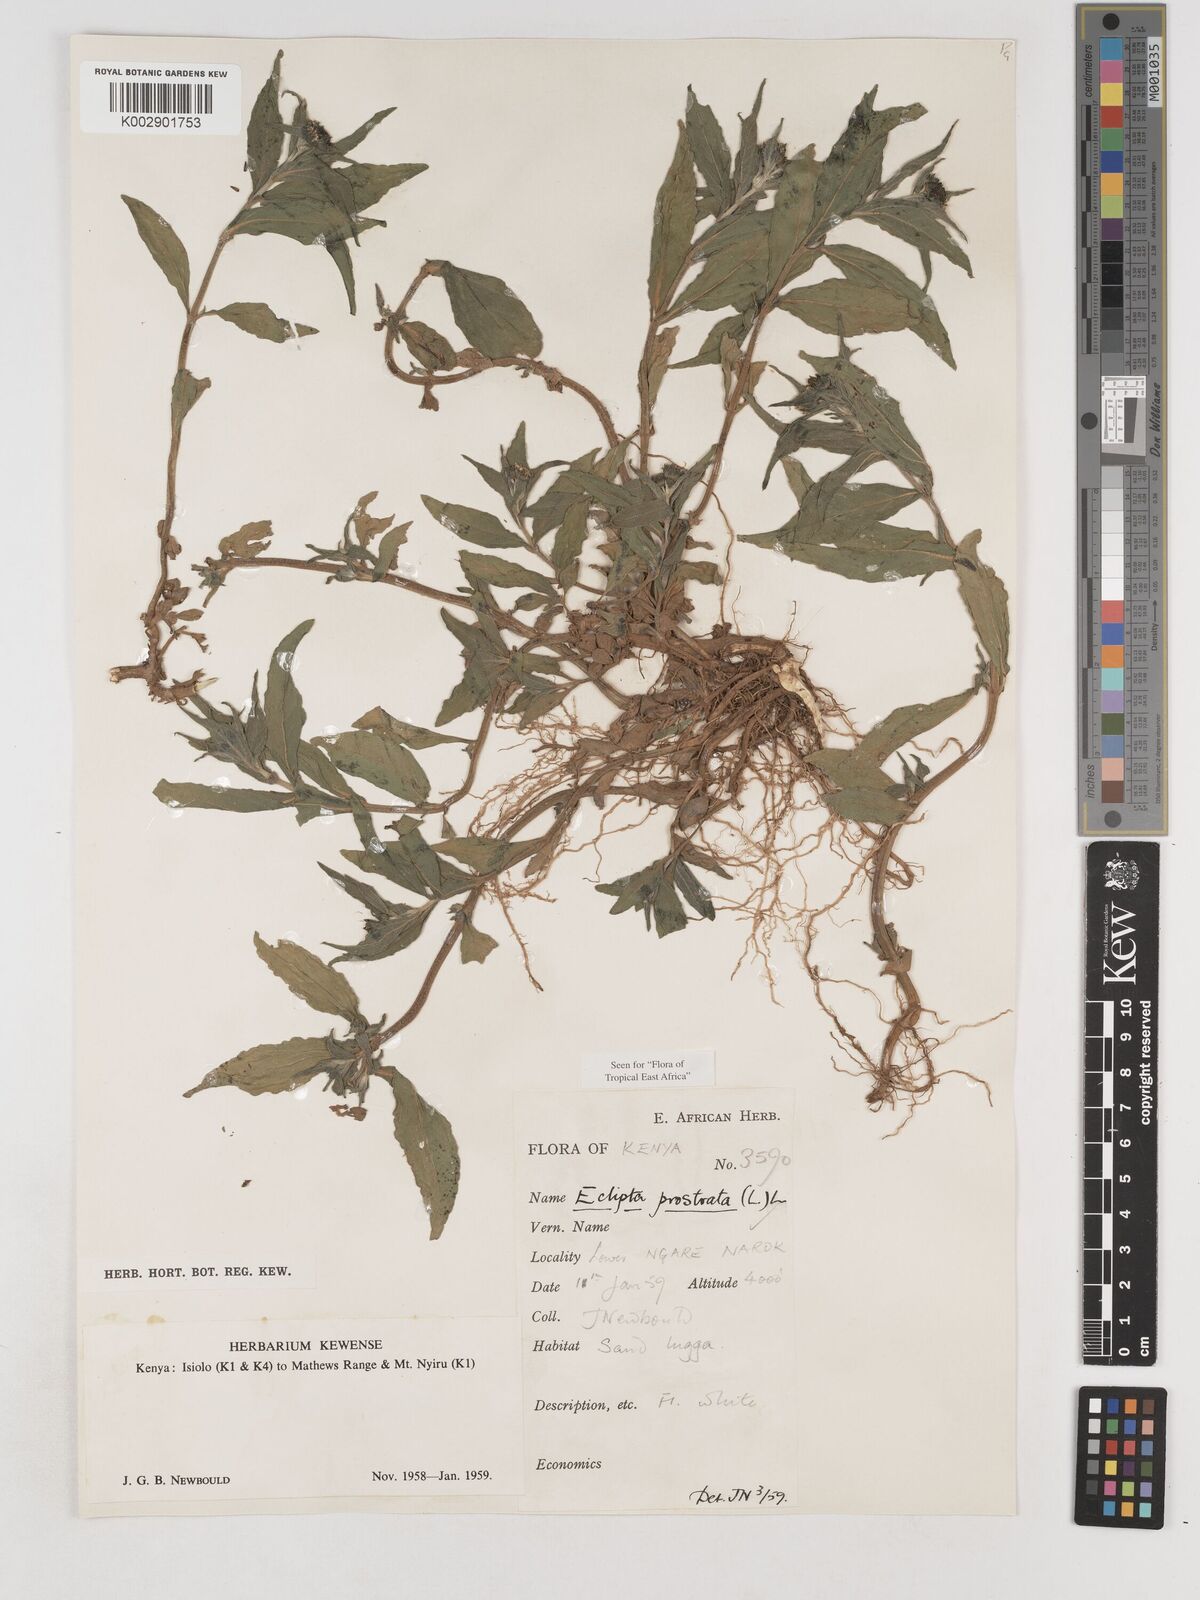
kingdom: Plantae
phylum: Tracheophyta
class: Magnoliopsida
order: Asterales
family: Asteraceae
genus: Eclipta
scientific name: Eclipta prostrata
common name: False daisy
